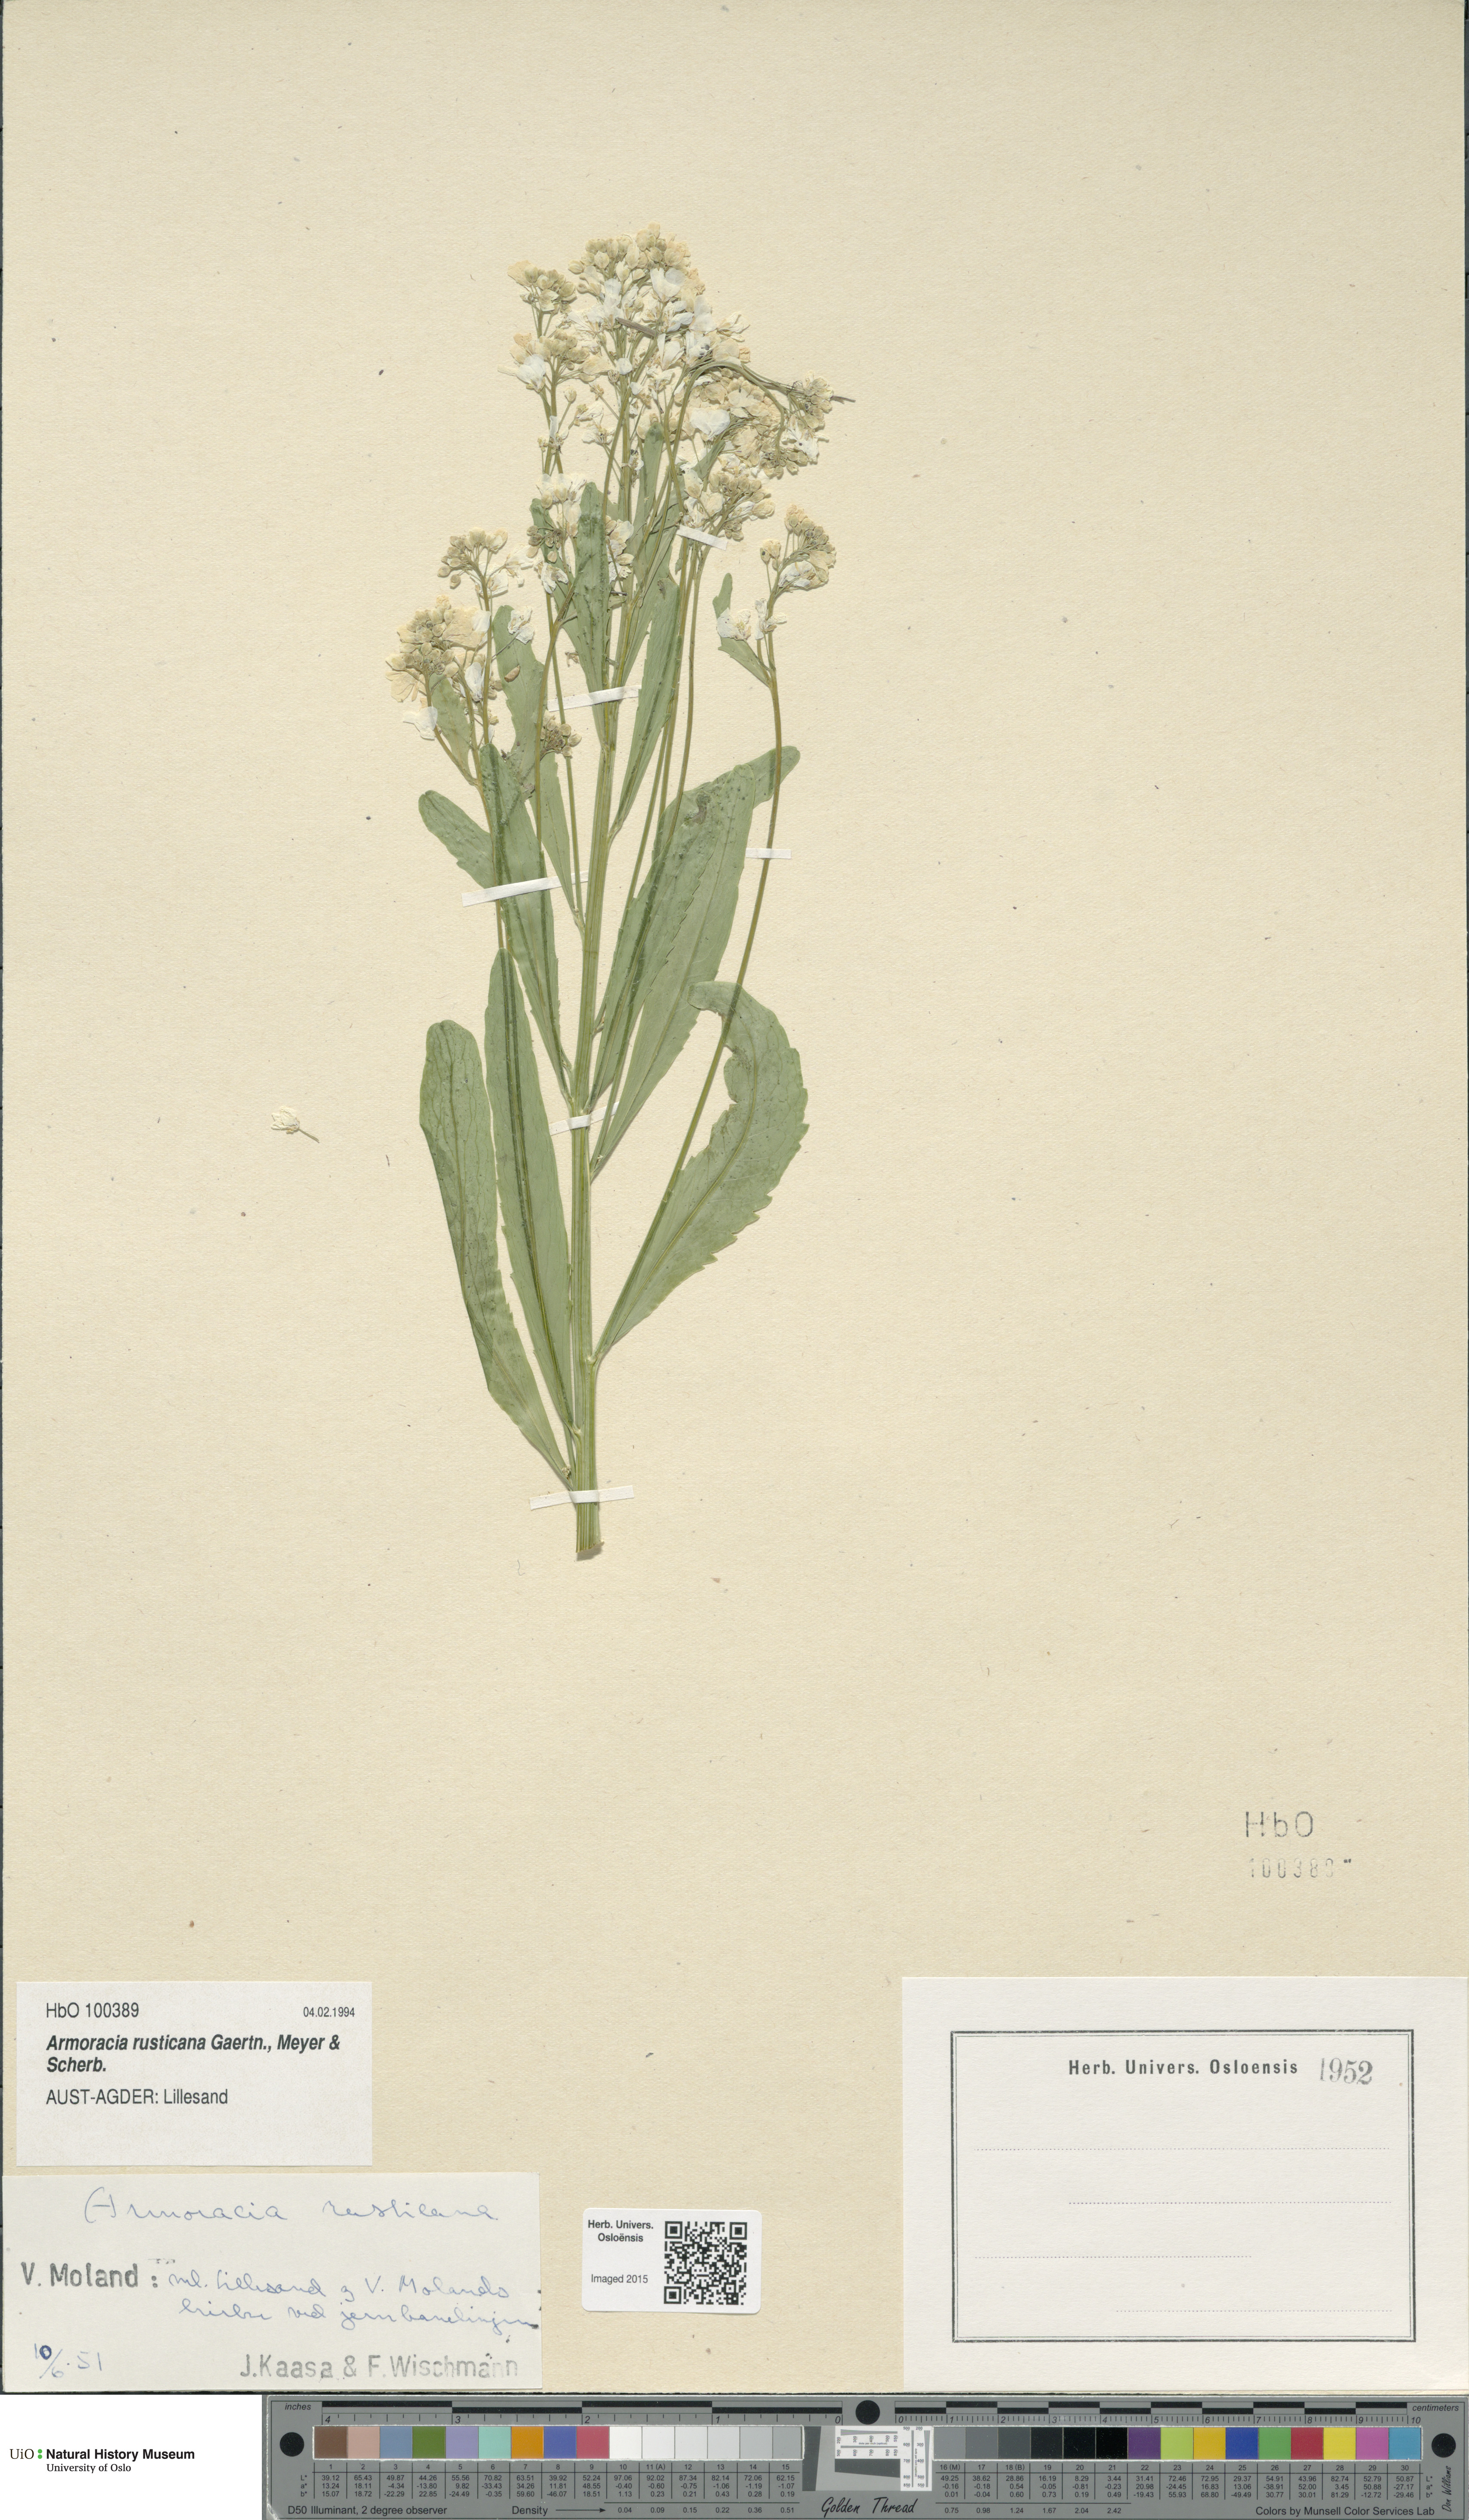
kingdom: Plantae
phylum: Tracheophyta
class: Magnoliopsida
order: Brassicales
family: Brassicaceae
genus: Armoracia
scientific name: Armoracia rusticana
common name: Horseradish
